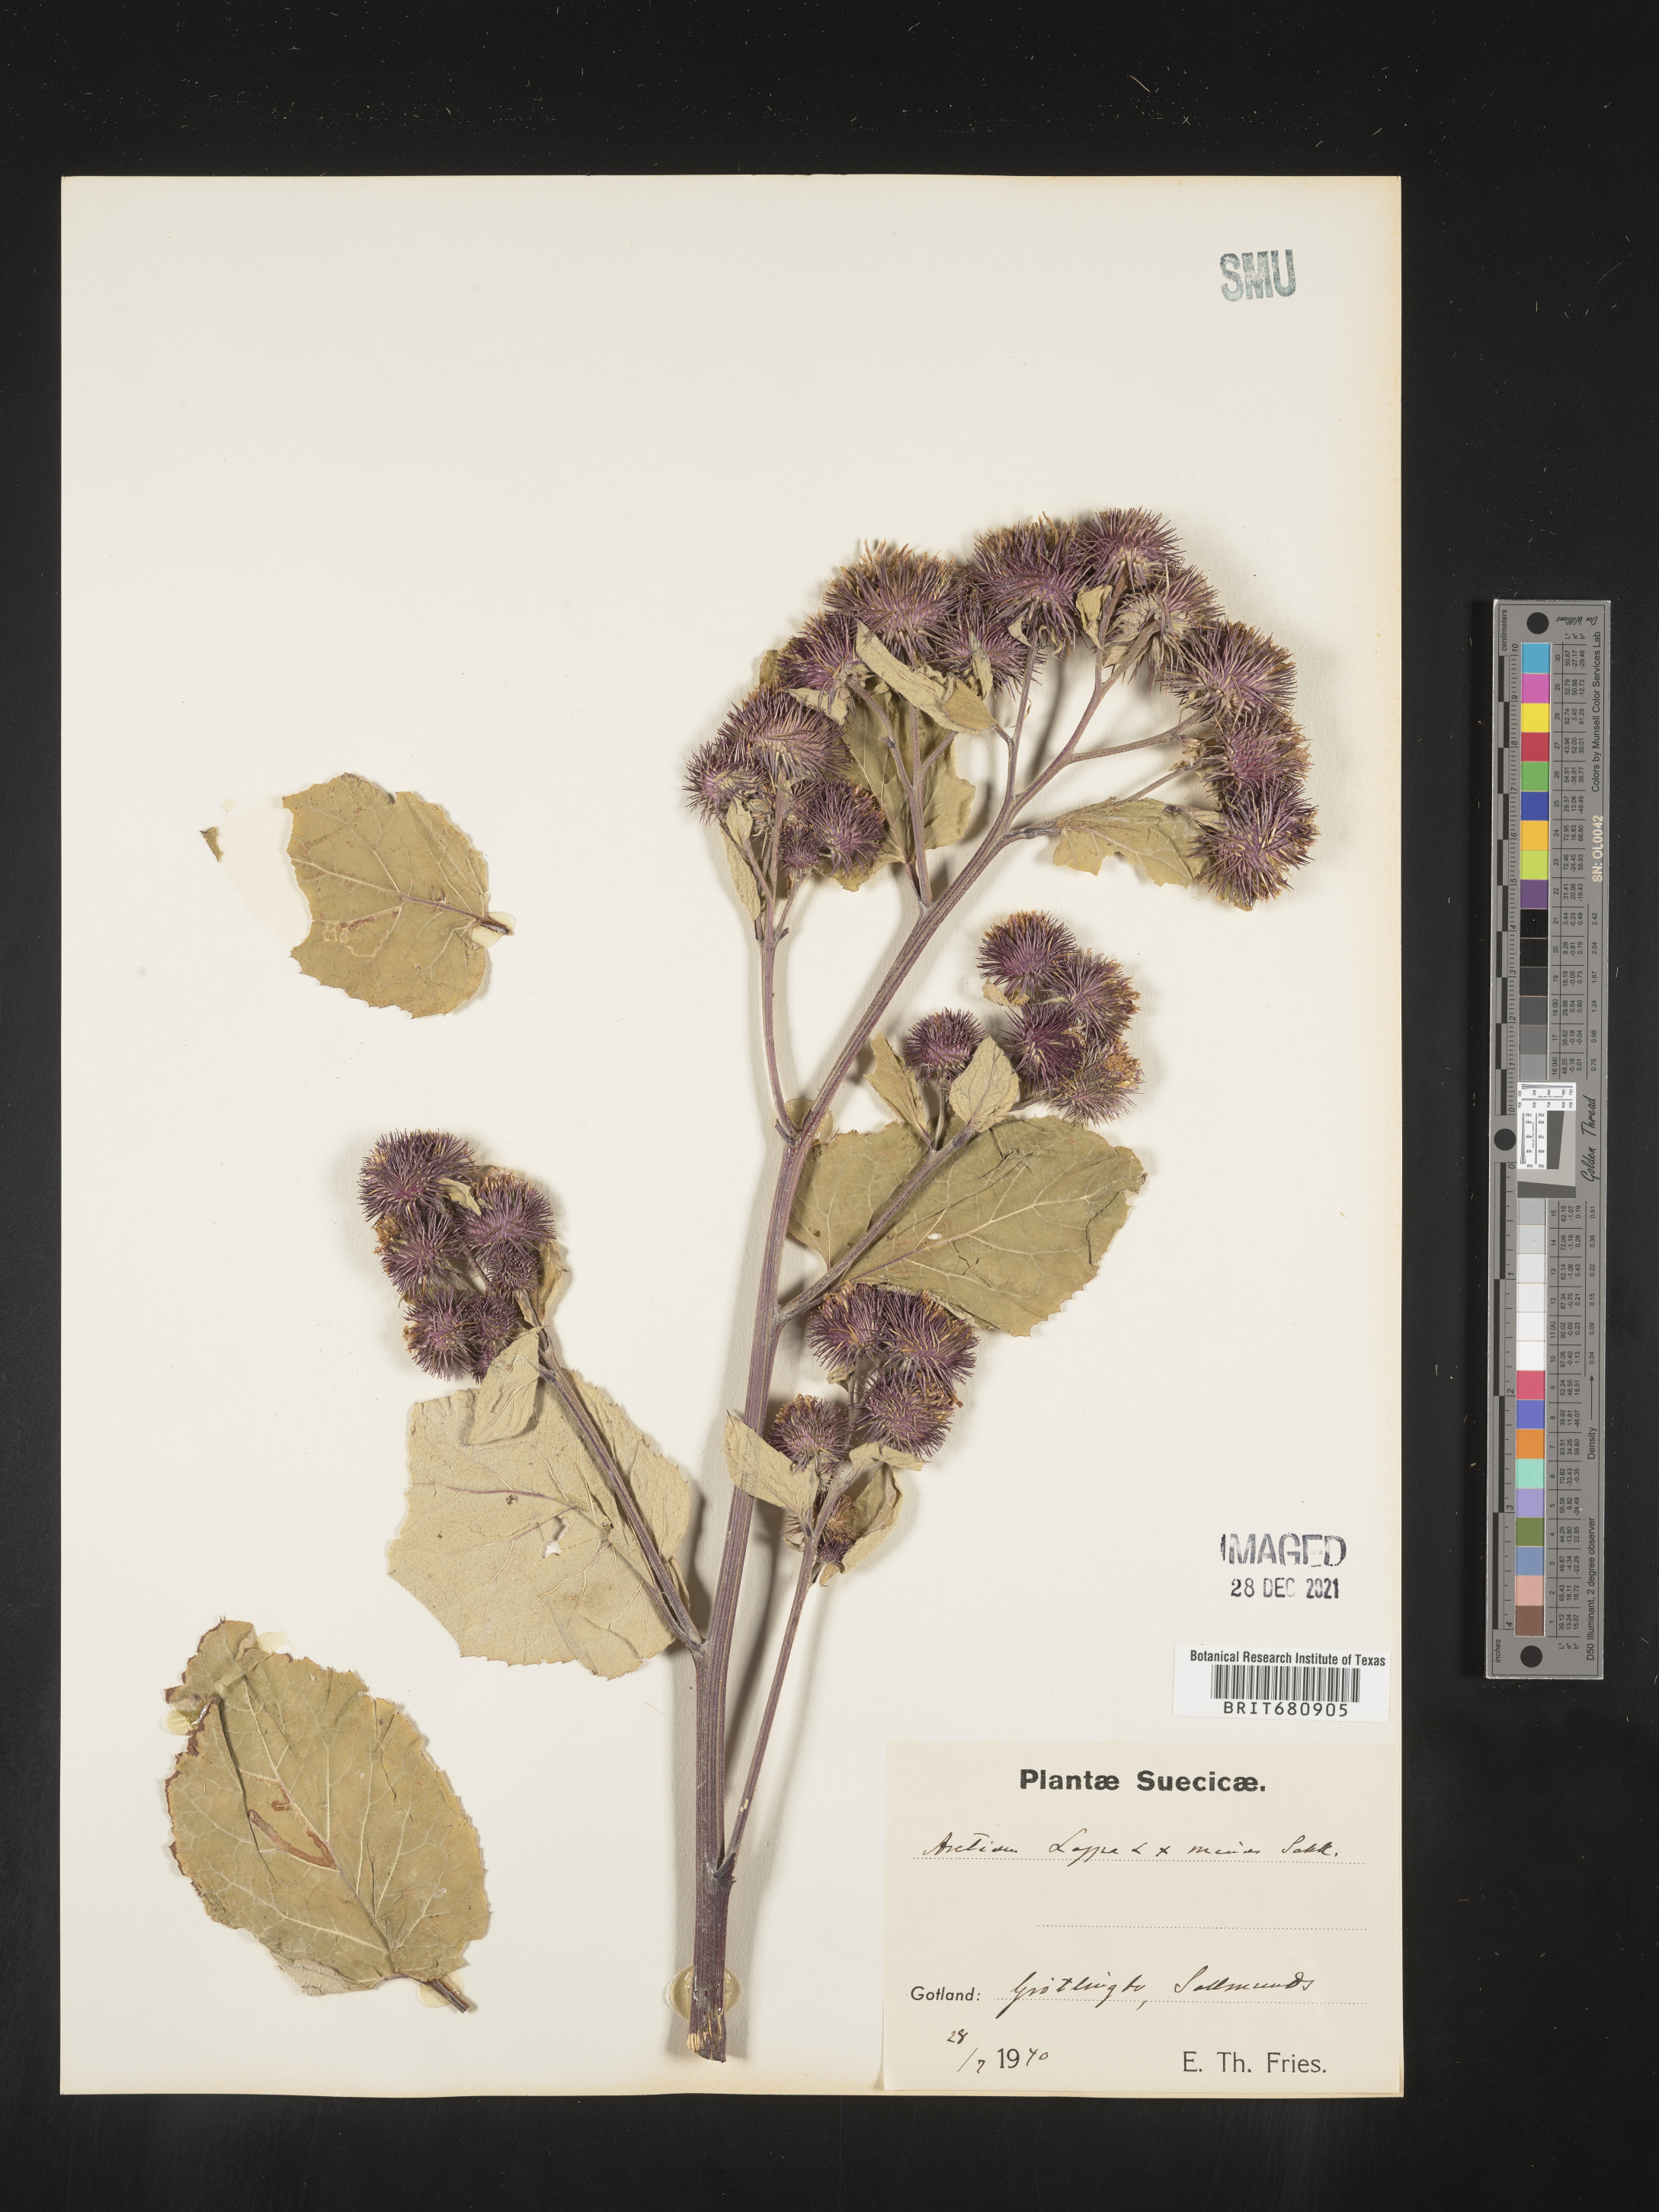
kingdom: Plantae
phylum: Tracheophyta
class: Magnoliopsida
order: Asterales
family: Asteraceae
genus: Arctium
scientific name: Arctium lappa
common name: Greater burdock
